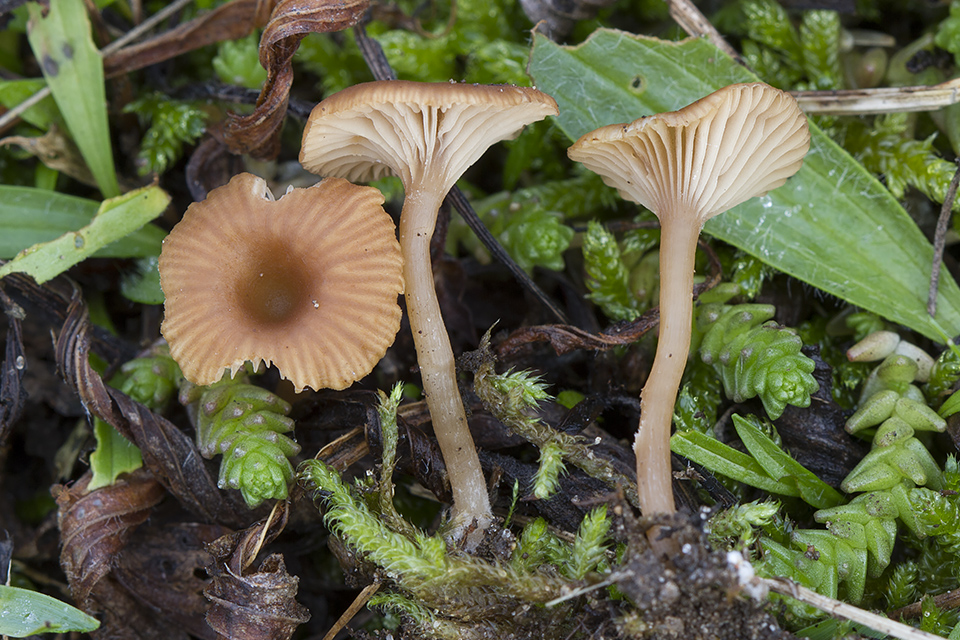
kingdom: Fungi
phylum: Basidiomycota
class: Agaricomycetes
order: Agaricales
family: Tricholomataceae
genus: Omphalina
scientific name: Omphalina pyxidata
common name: rødbrun navlehat
